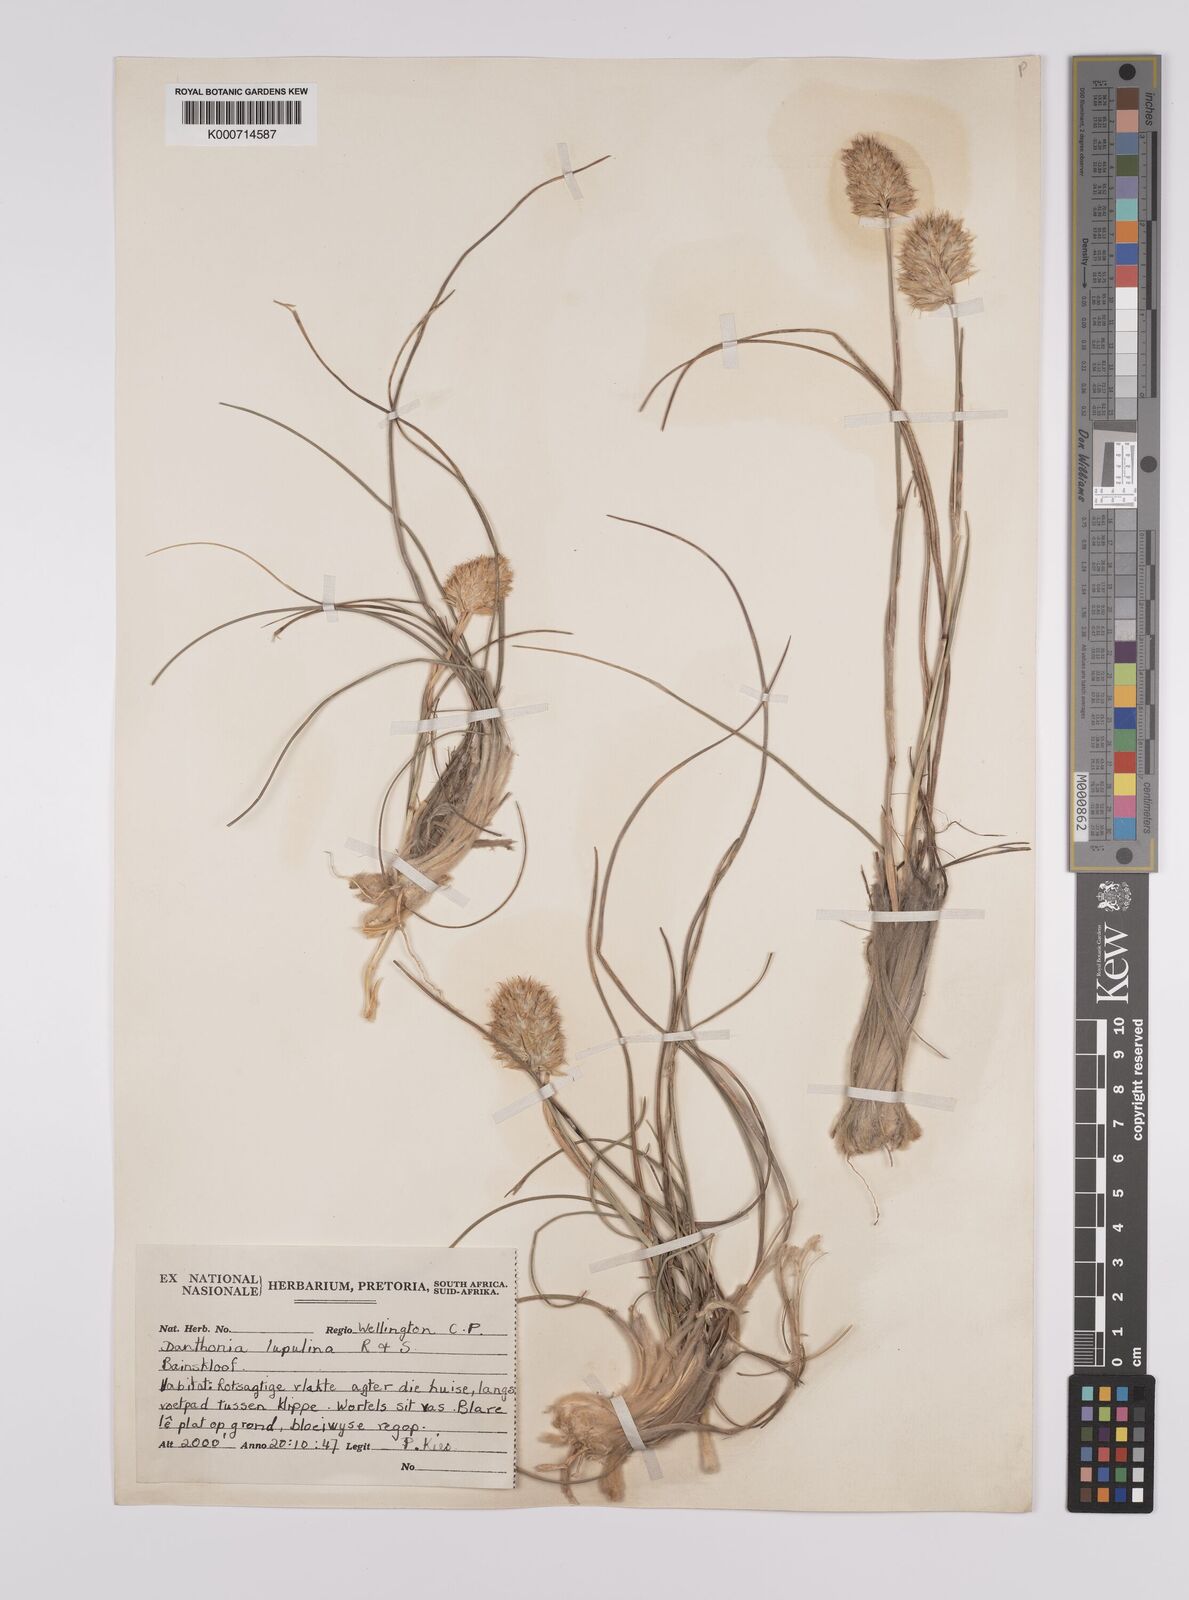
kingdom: Plantae
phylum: Tracheophyta
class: Liliopsida
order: Poales
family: Poaceae
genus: Rytidosperma
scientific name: Rytidosperma
